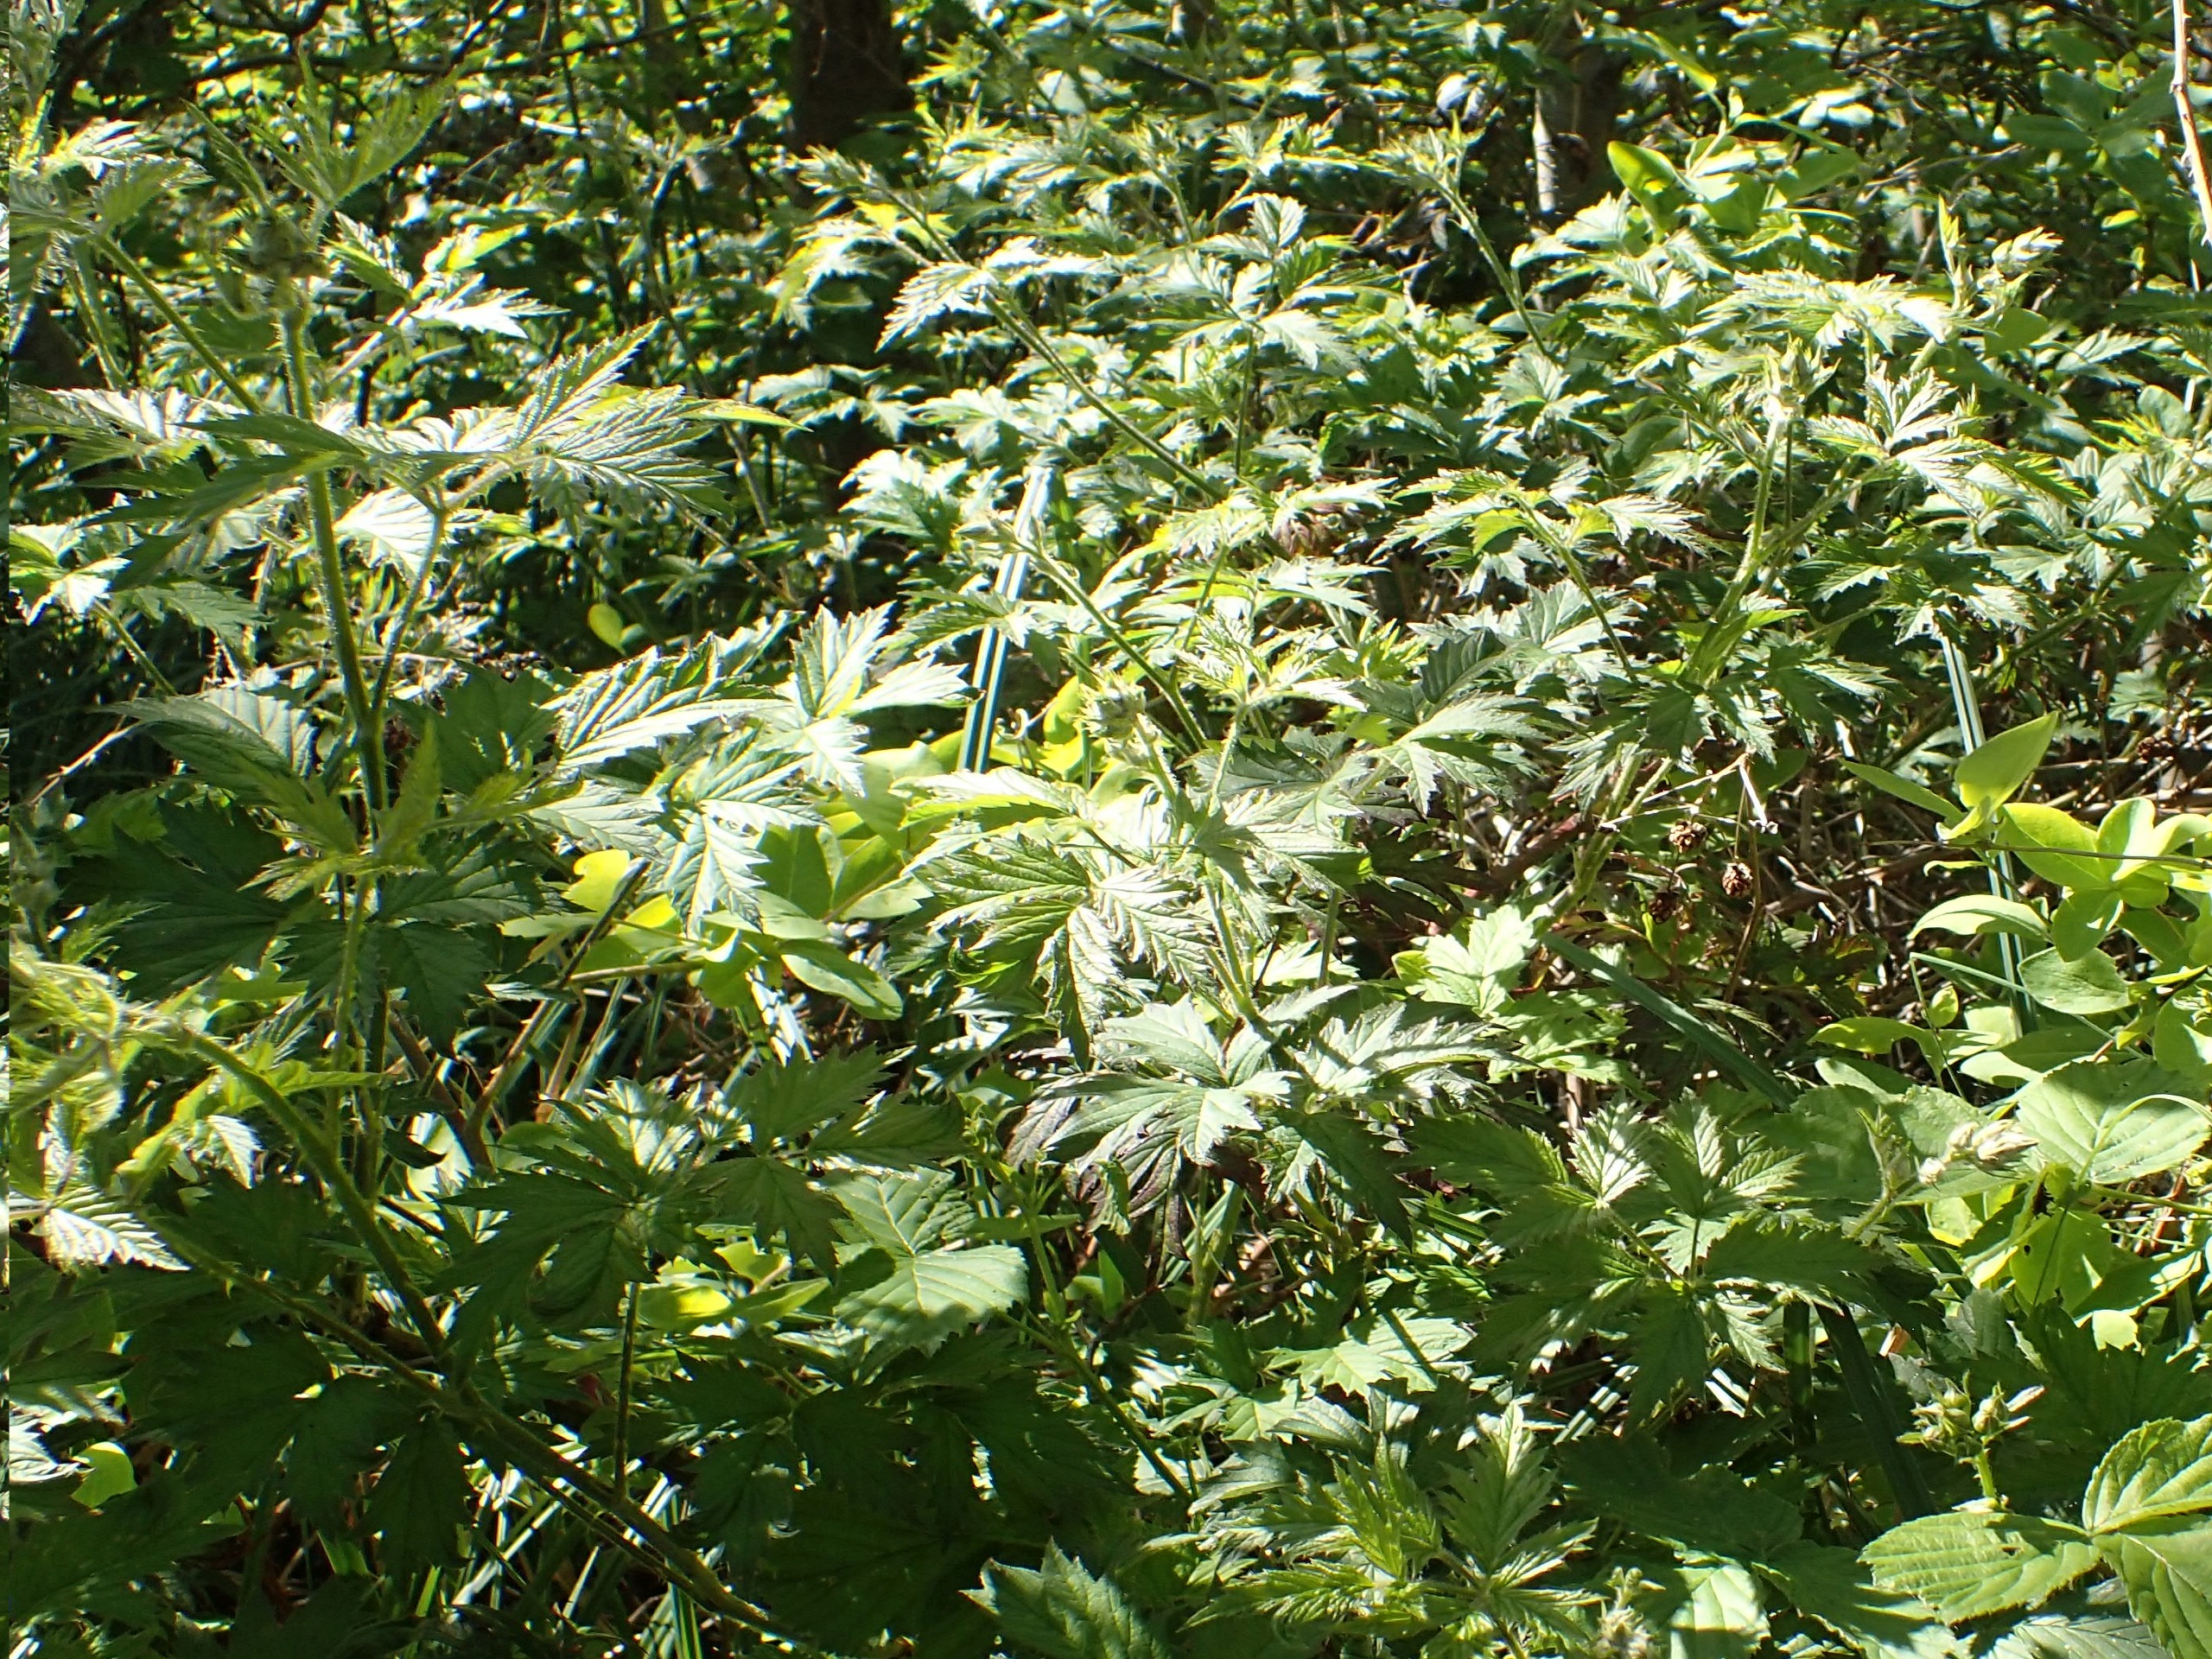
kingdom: Plantae
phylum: Tracheophyta
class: Magnoliopsida
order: Rosales
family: Rosaceae
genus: Rubus
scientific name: Rubus laciniatus
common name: Fliget brombær
